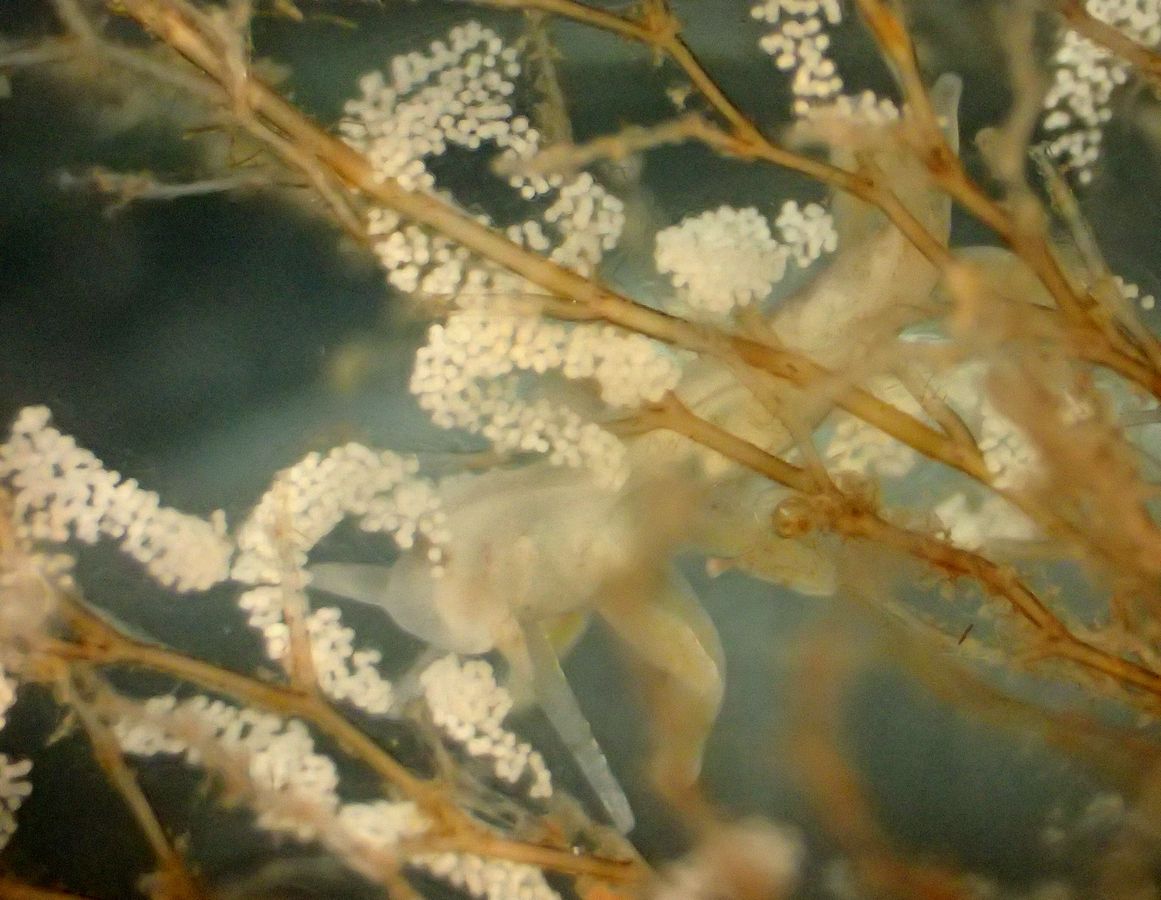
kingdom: Animalia
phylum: Mollusca
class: Gastropoda
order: Nudibranchia
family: Eubranchidae
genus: Eubranchus
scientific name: Eubranchus rupium
